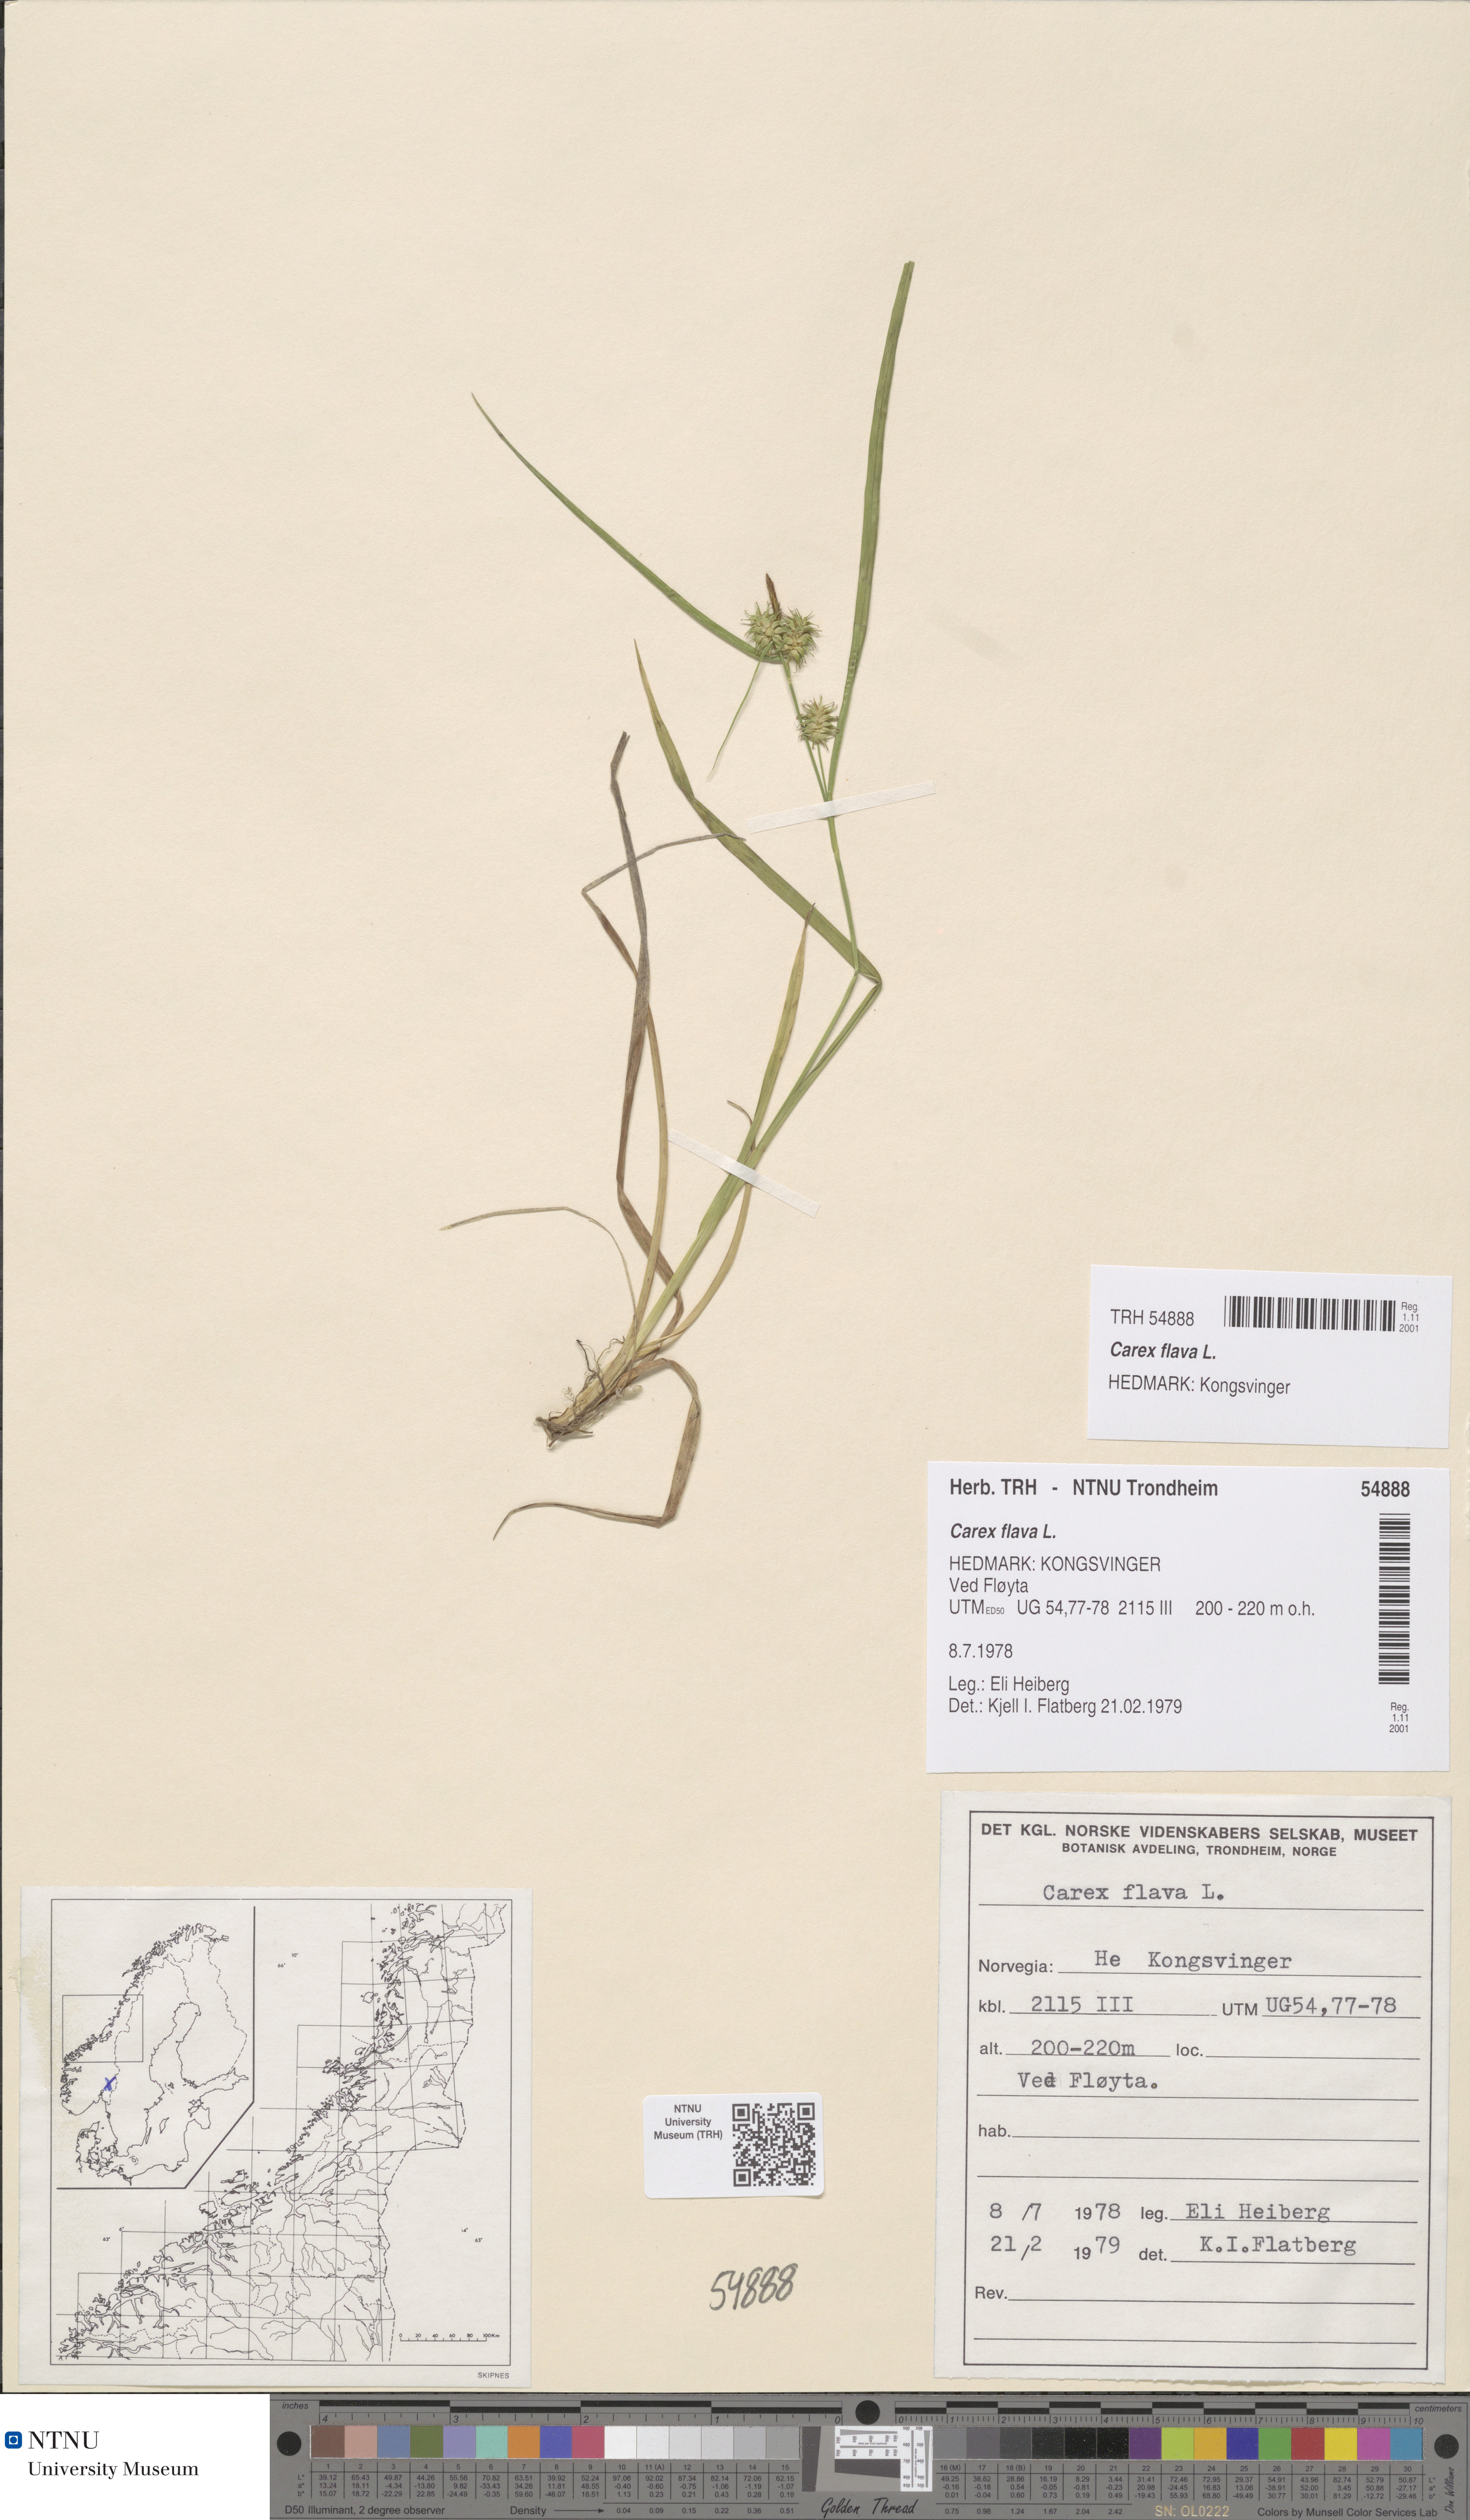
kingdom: Plantae
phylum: Tracheophyta
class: Liliopsida
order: Poales
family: Cyperaceae
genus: Carex
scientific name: Carex flava
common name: Large yellow-sedge
